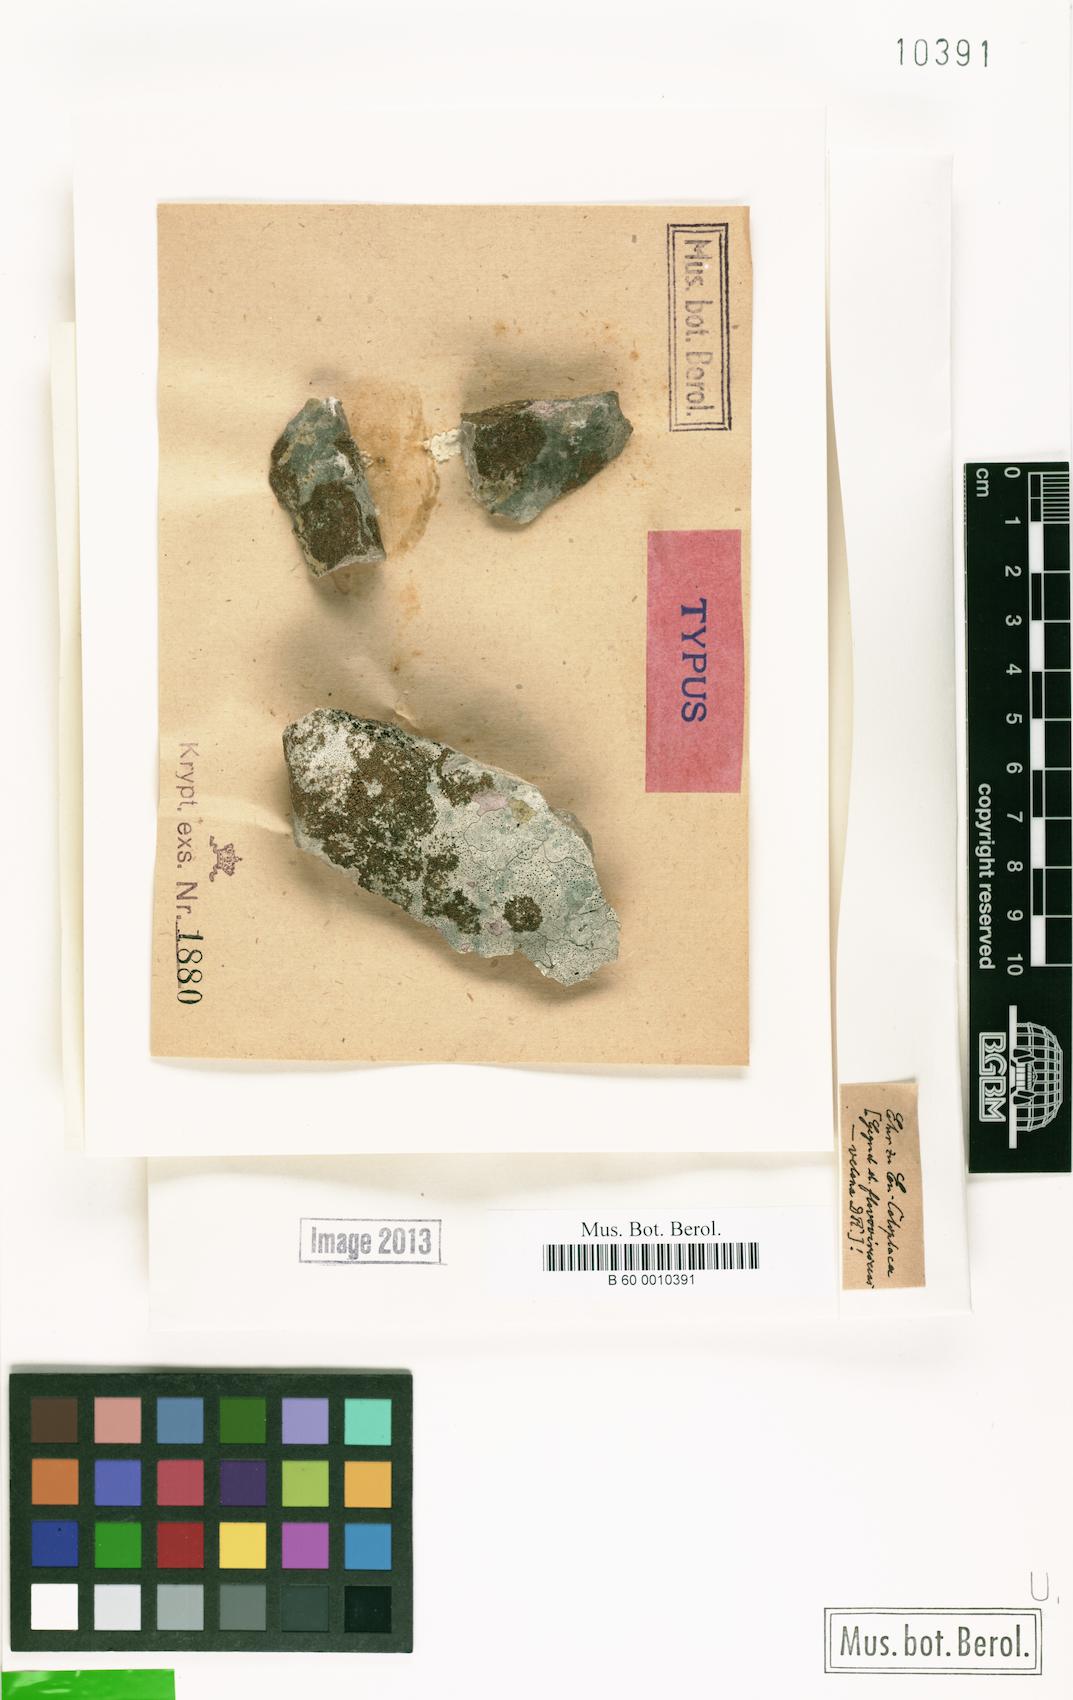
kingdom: Fungi
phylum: Ascomycota
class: Lecanoromycetes
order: Teloschistales
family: Teloschistaceae
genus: Caloplaca
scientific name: Caloplaca
